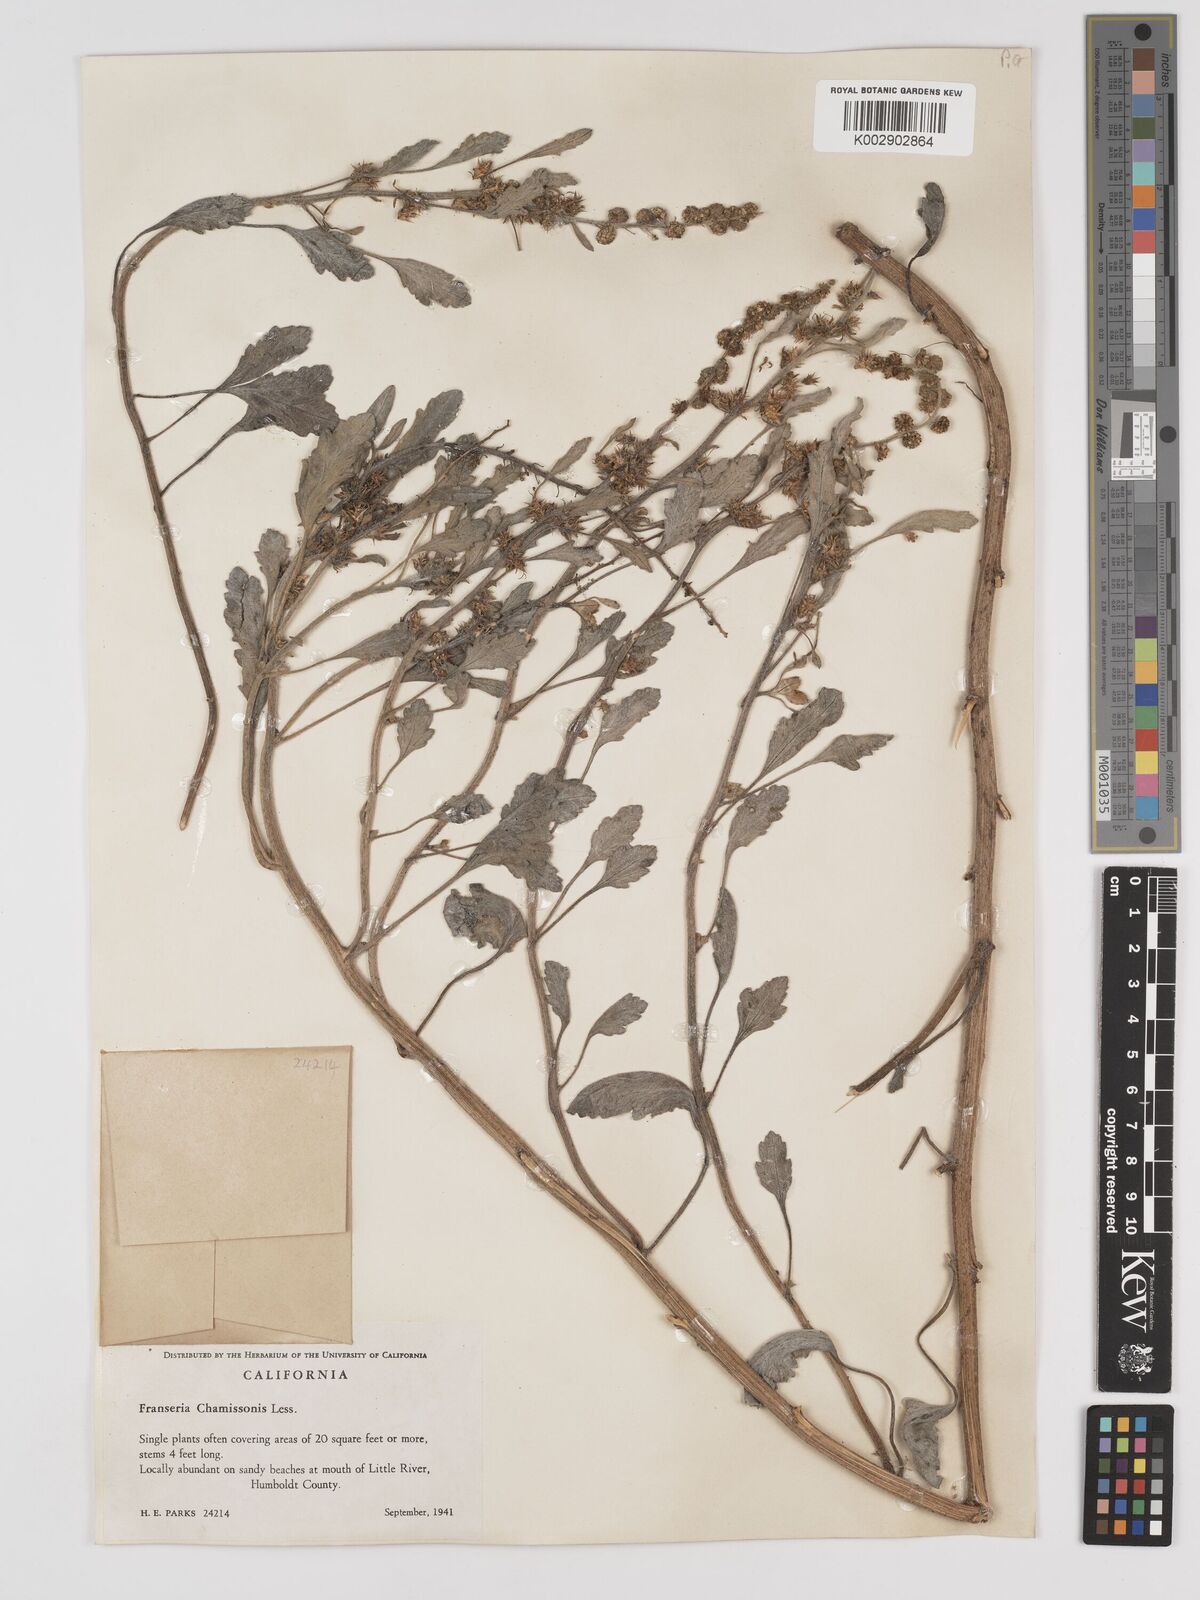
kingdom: Plantae
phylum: Tracheophyta
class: Magnoliopsida
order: Asterales
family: Asteraceae
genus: Ambrosia
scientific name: Ambrosia chamissonis
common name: Beachbur
